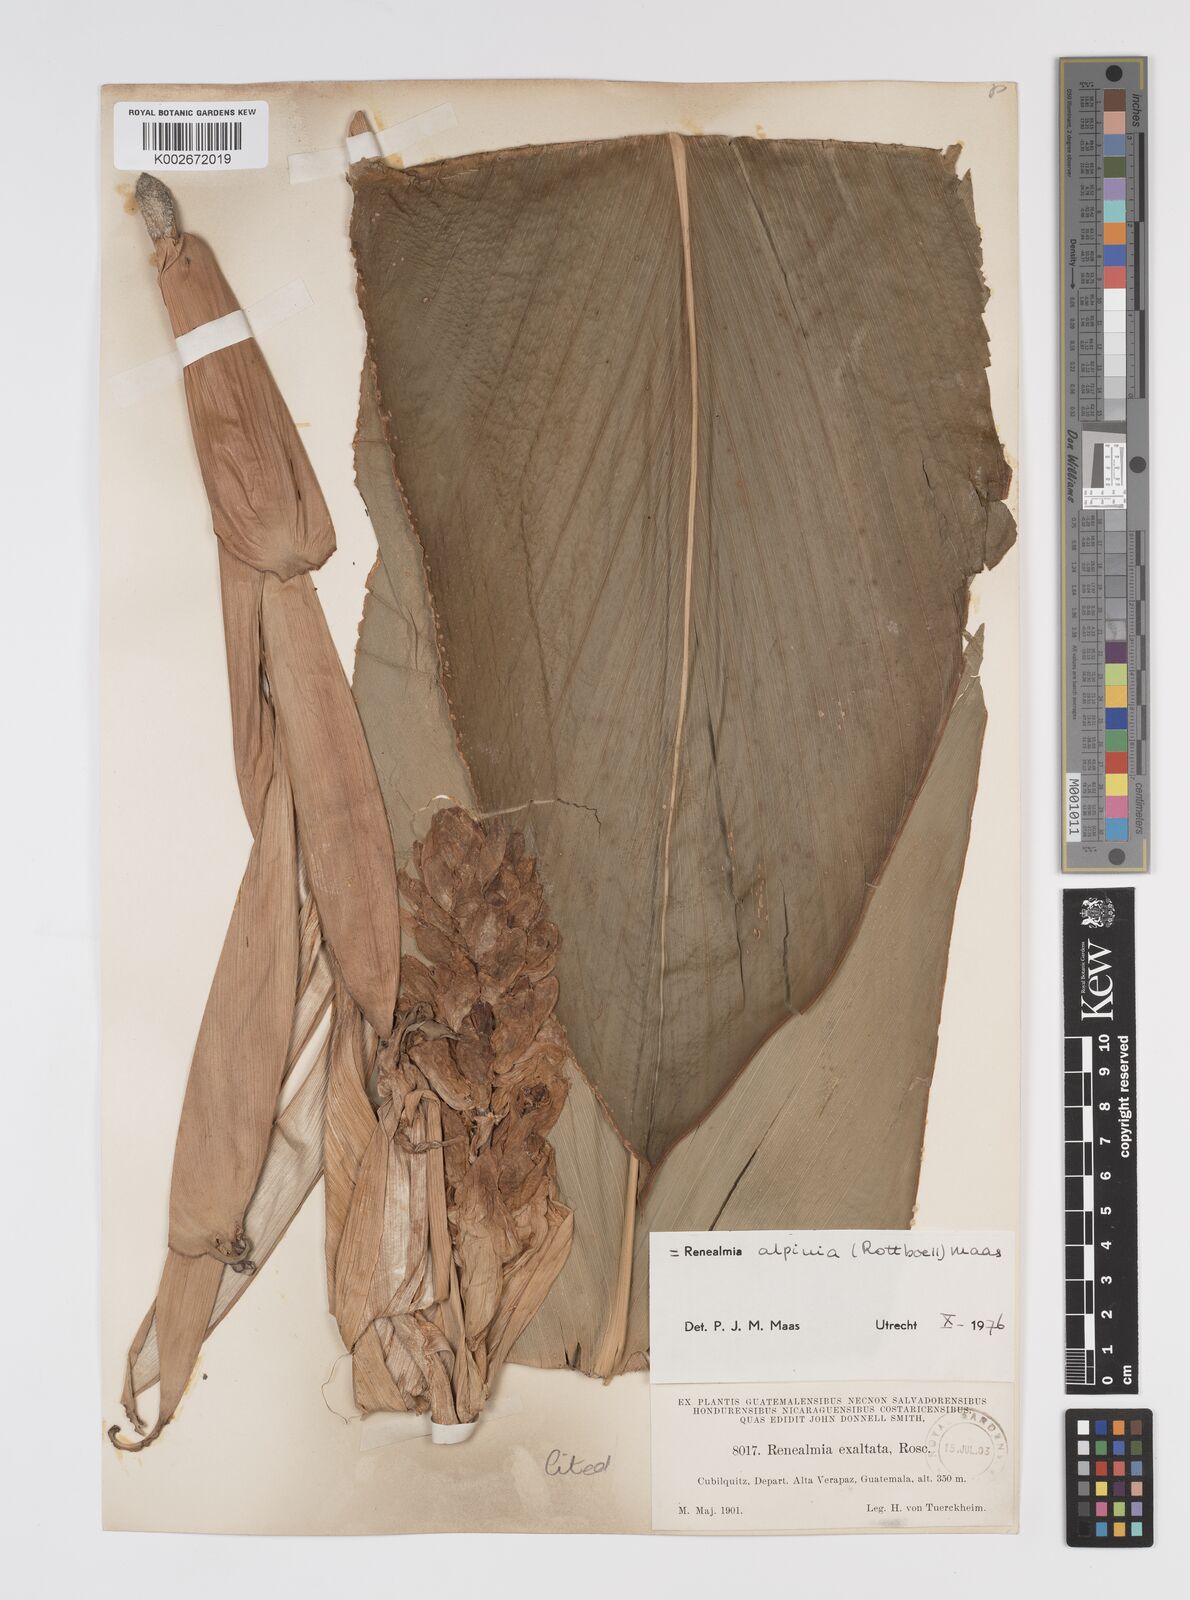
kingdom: Plantae
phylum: Tracheophyta
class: Liliopsida
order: Zingiberales
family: Zingiberaceae
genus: Renealmia
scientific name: Renealmia alpinia
